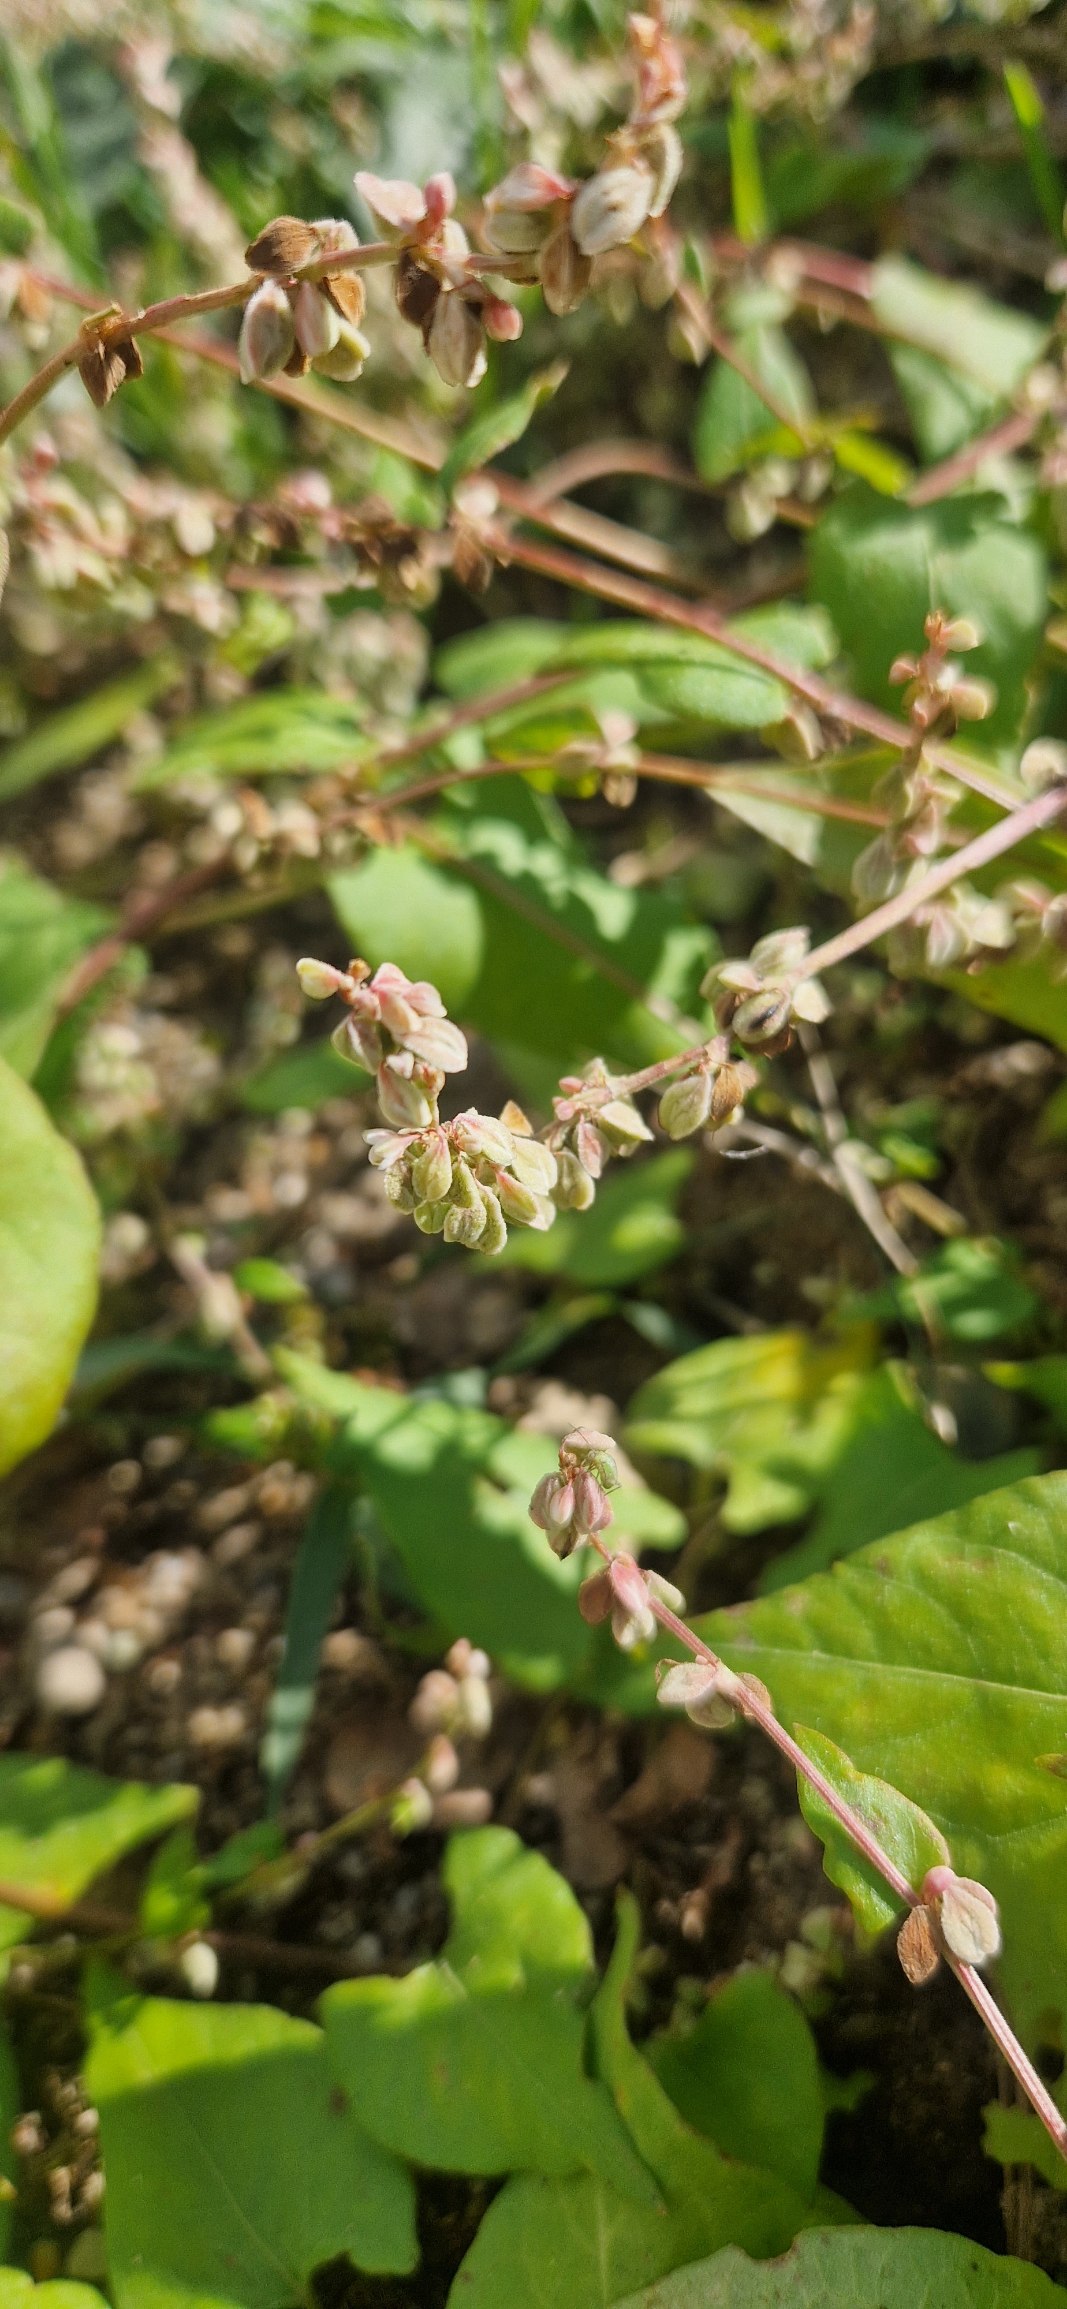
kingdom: Plantae
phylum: Tracheophyta
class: Magnoliopsida
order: Caryophyllales
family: Polygonaceae
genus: Fallopia
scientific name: Fallopia convolvulus
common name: Snerle-pileurt
